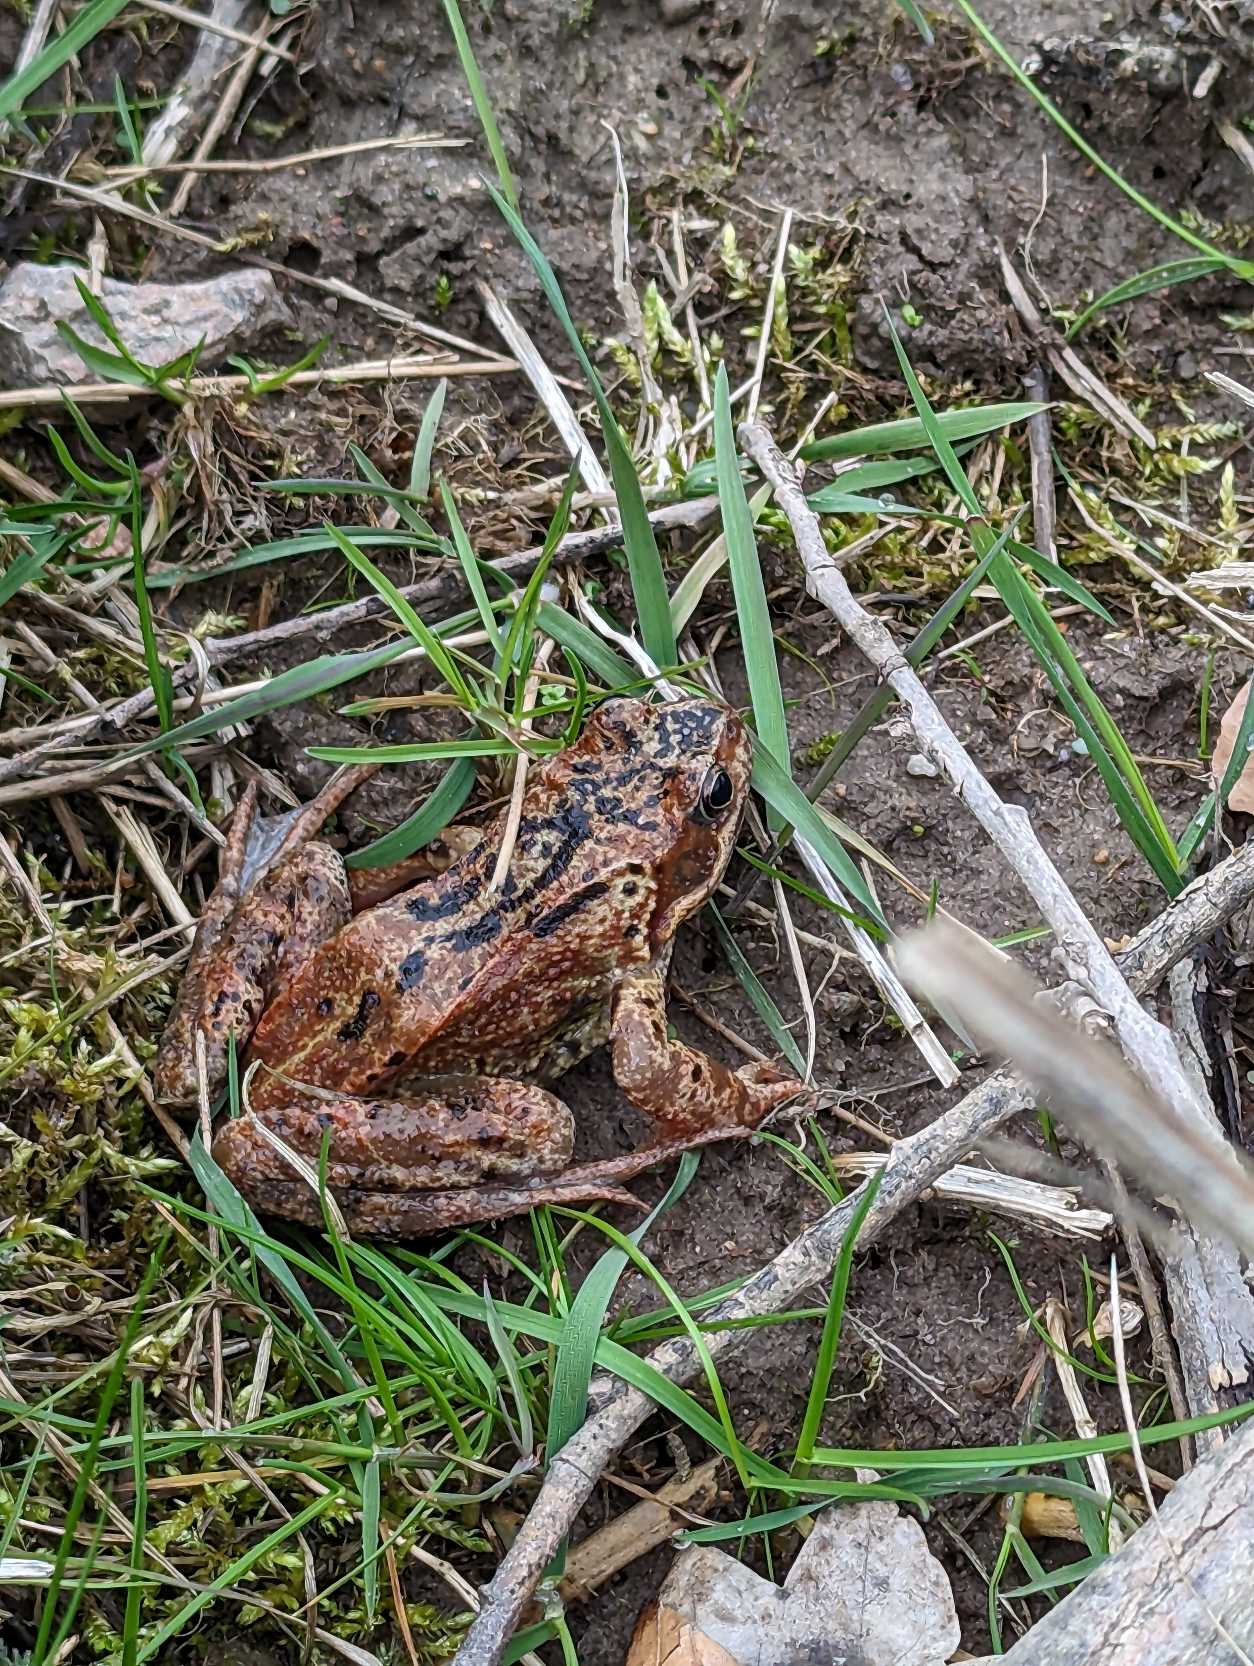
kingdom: Animalia
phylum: Chordata
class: Amphibia
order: Anura
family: Ranidae
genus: Rana
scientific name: Rana temporaria
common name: Butsnudet frø
